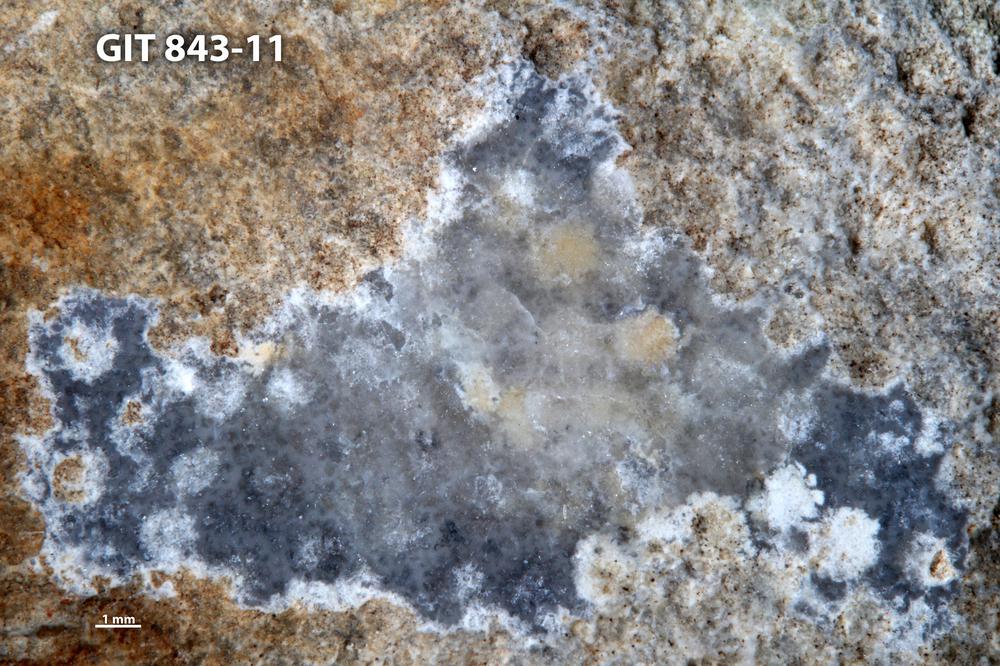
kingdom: Animalia
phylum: Xenacoelomorpha
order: Acoela
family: Proporidae
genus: Propora
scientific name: Propora
